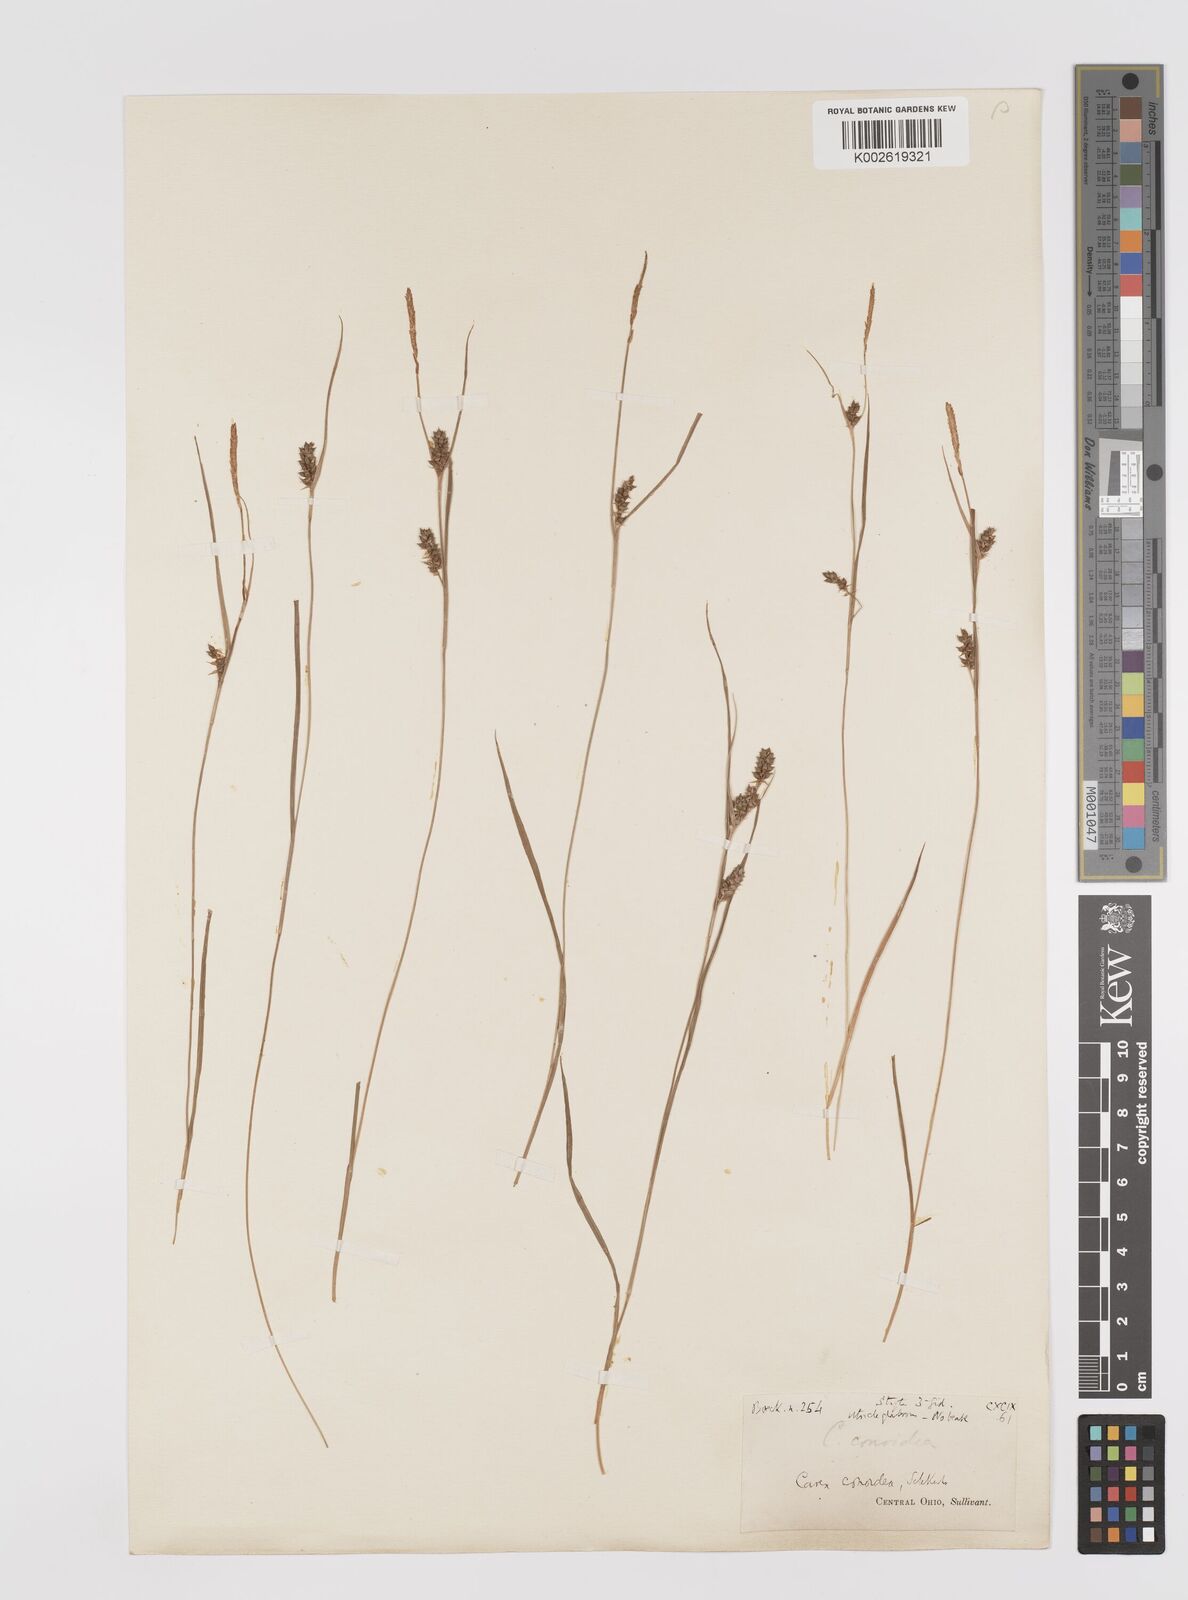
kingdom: Plantae
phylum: Tracheophyta
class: Liliopsida
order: Poales
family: Cyperaceae
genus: Carex
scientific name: Carex conoidea
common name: Cone shaped sedge
